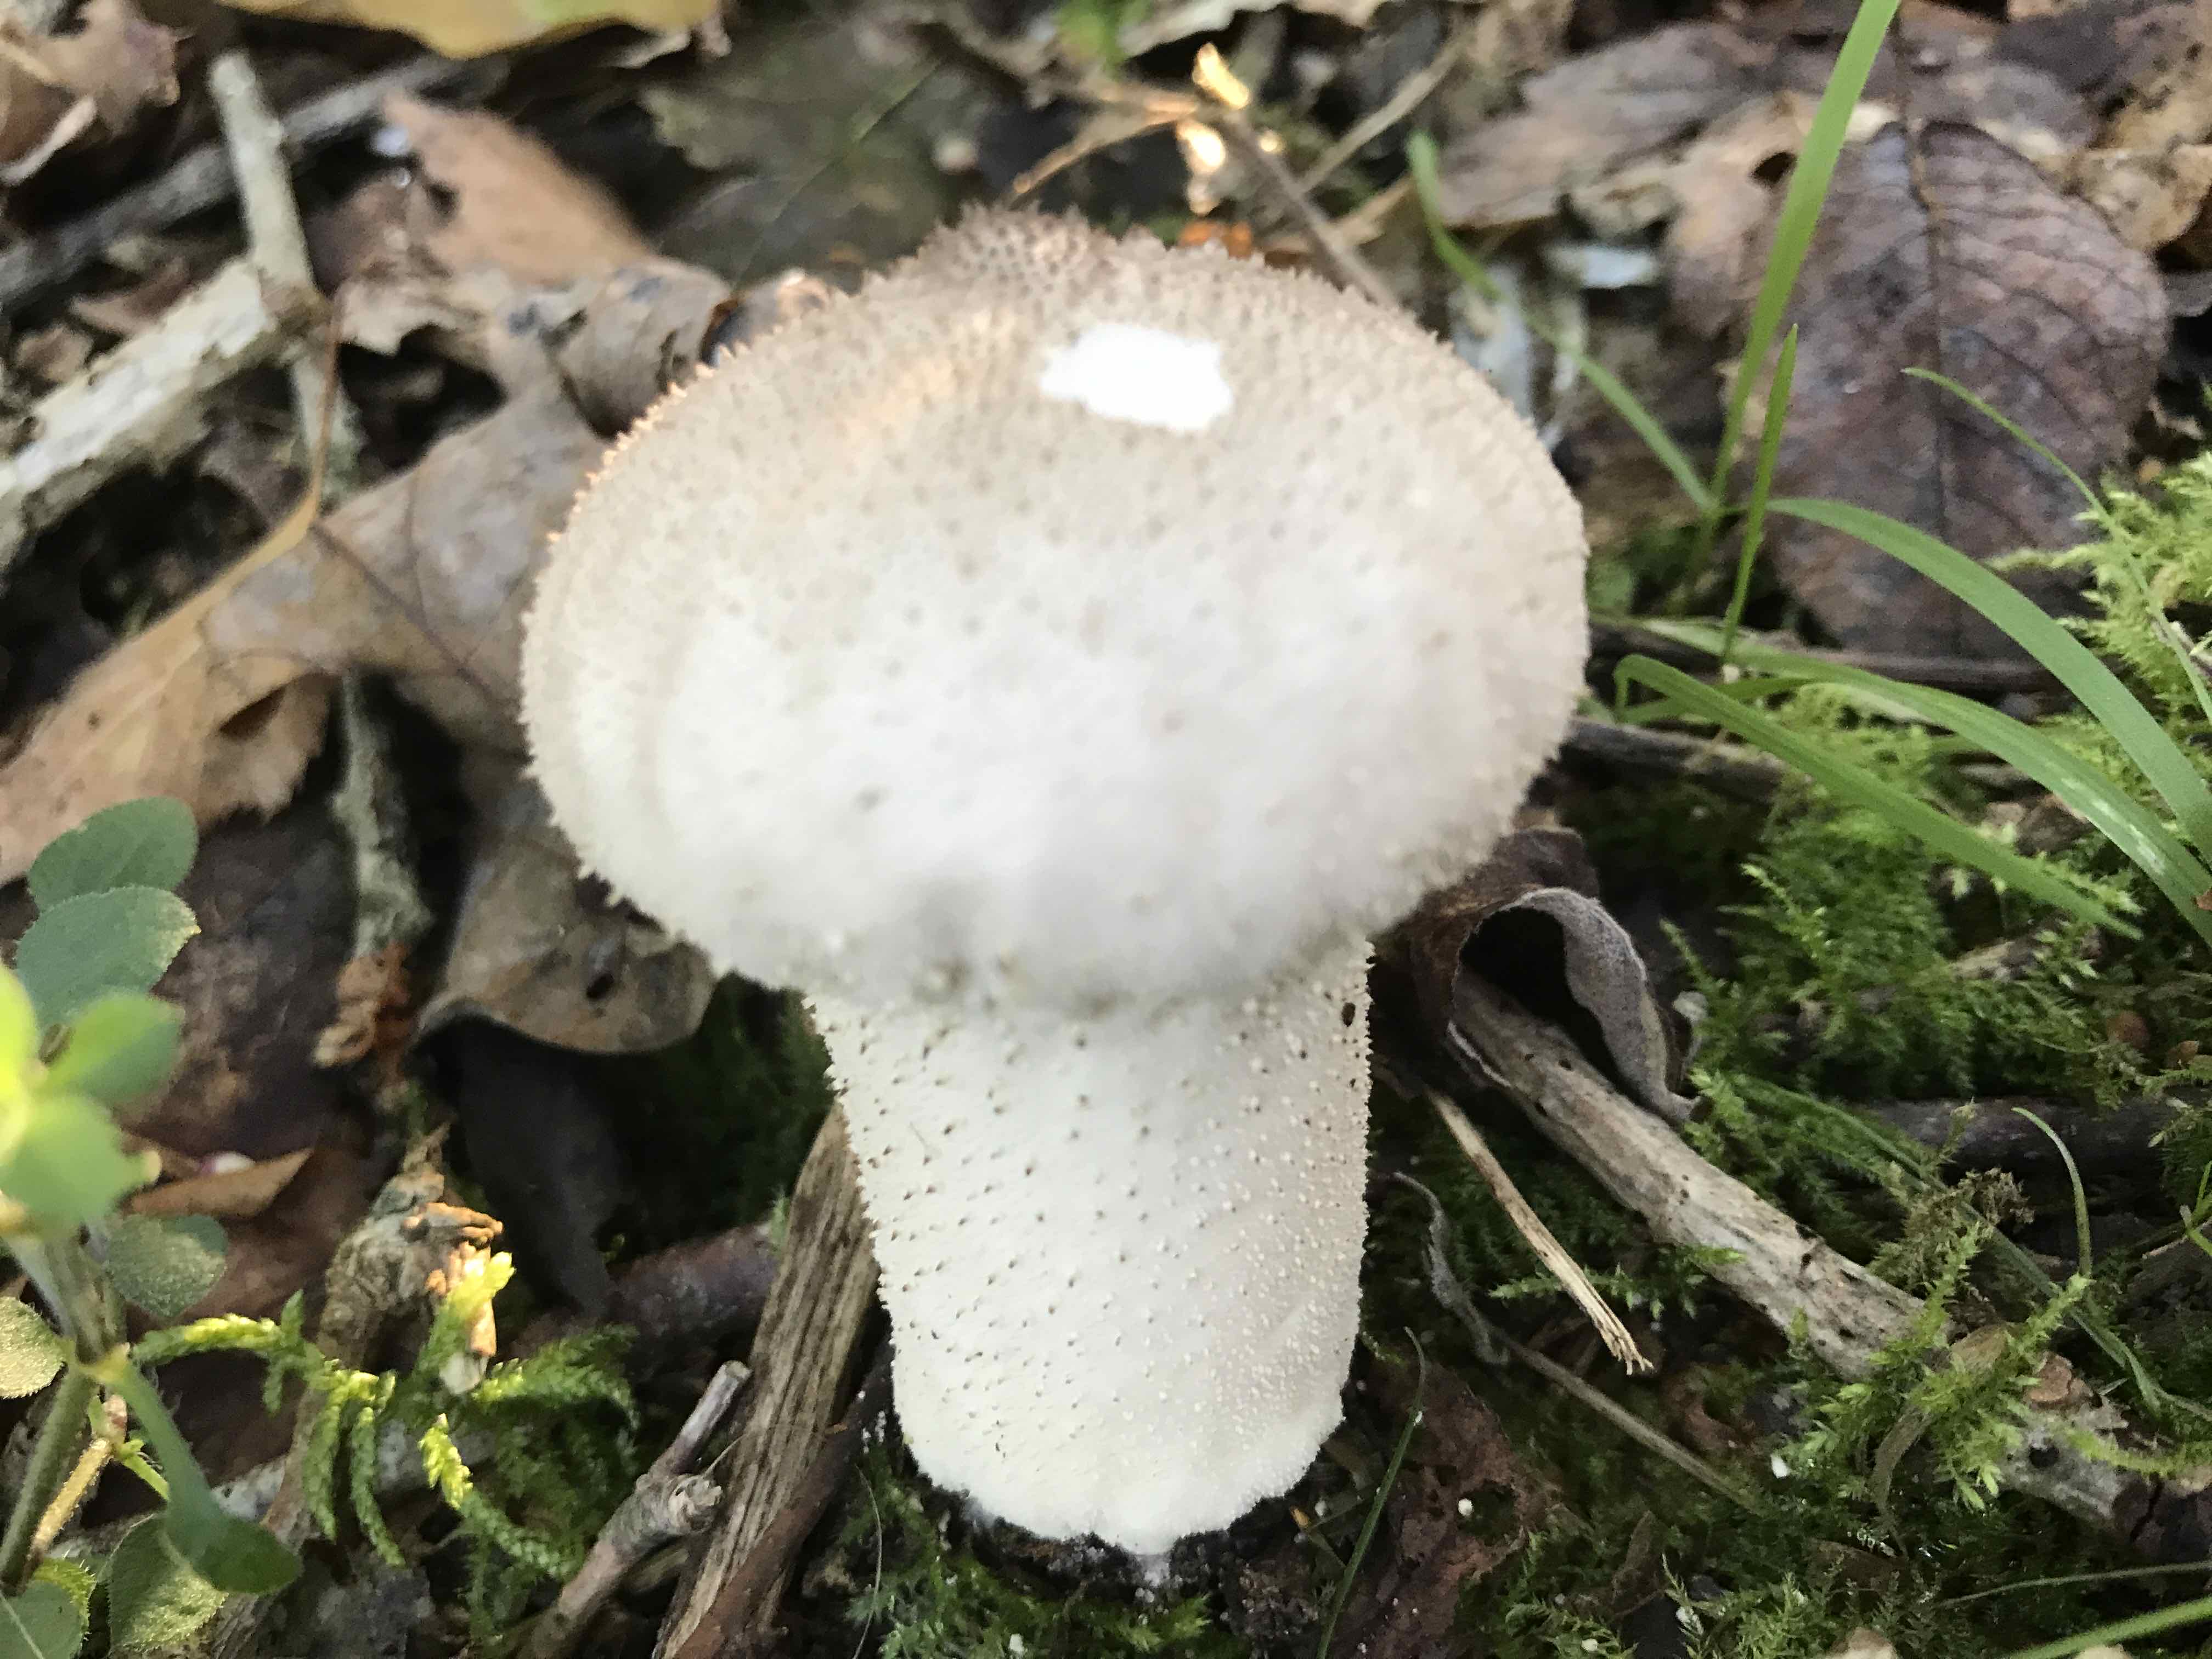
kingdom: Fungi
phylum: Basidiomycota
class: Agaricomycetes
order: Agaricales
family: Lycoperdaceae
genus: Lycoperdon
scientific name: Lycoperdon perlatum
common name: krystal-støvbold
